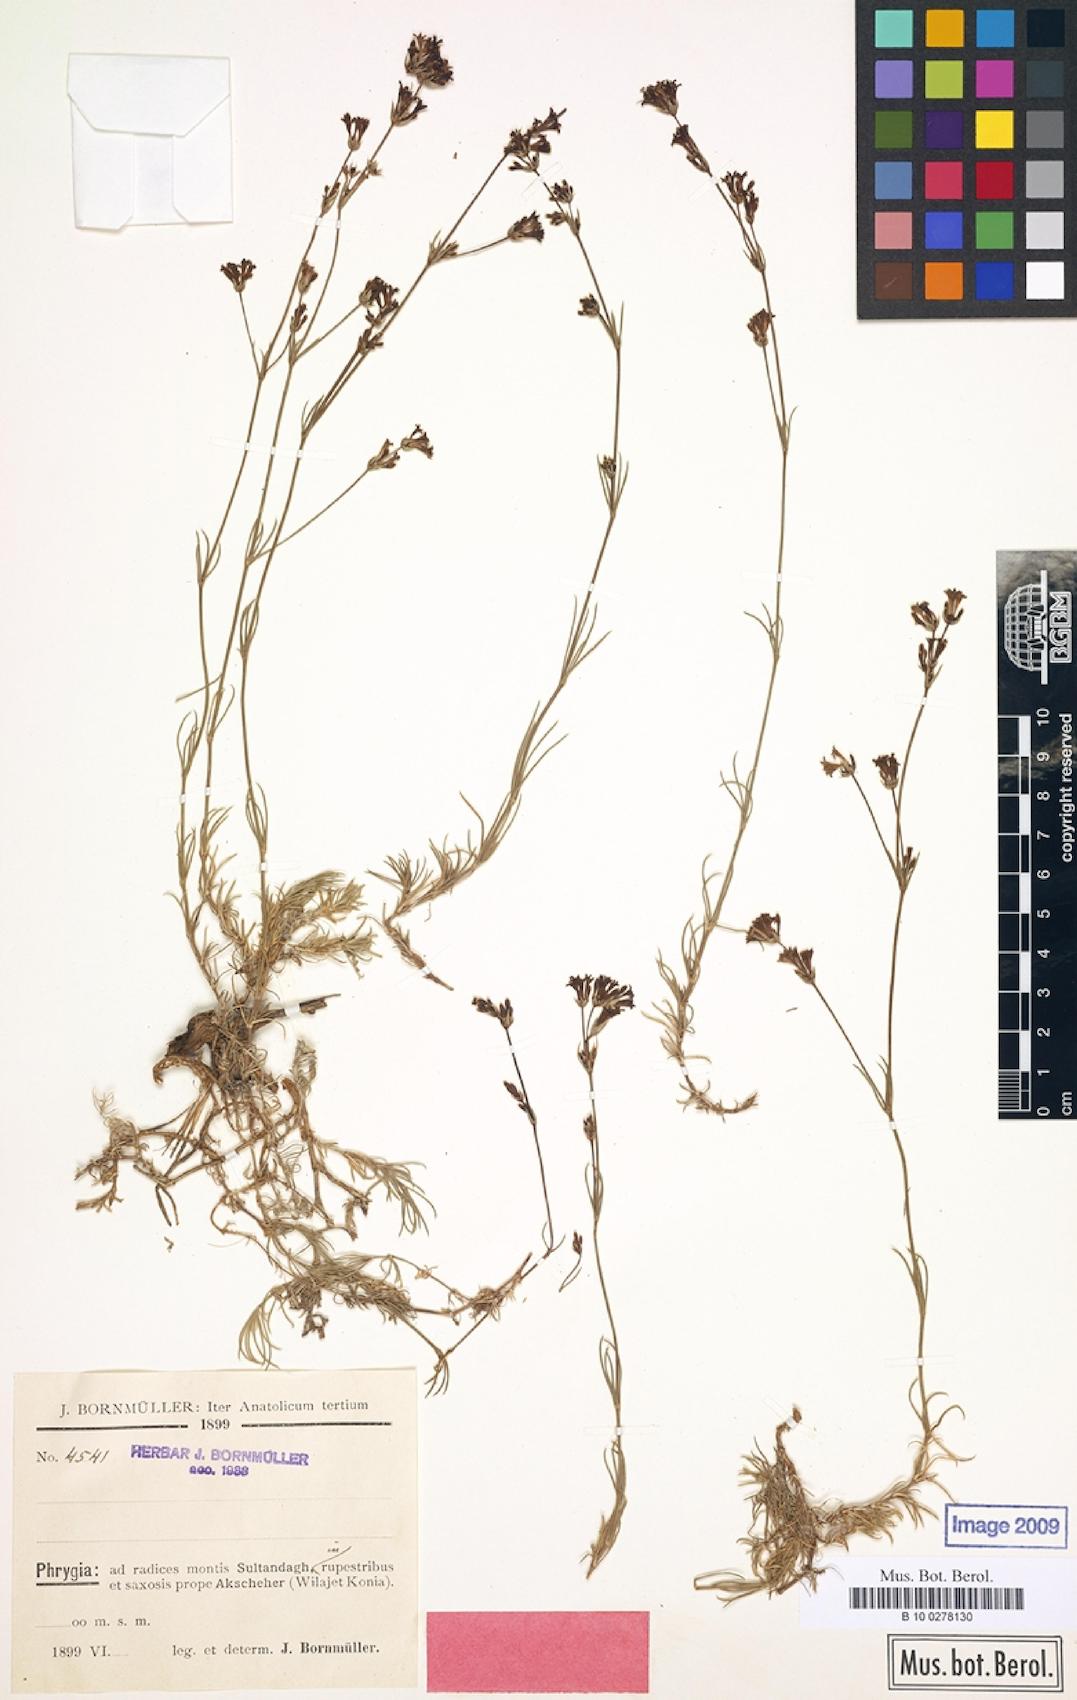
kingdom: Plantae
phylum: Tracheophyta
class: Magnoliopsida
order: Gentianales
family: Rubiaceae
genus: Cynanchica
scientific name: Cynanchica lilaciflora
